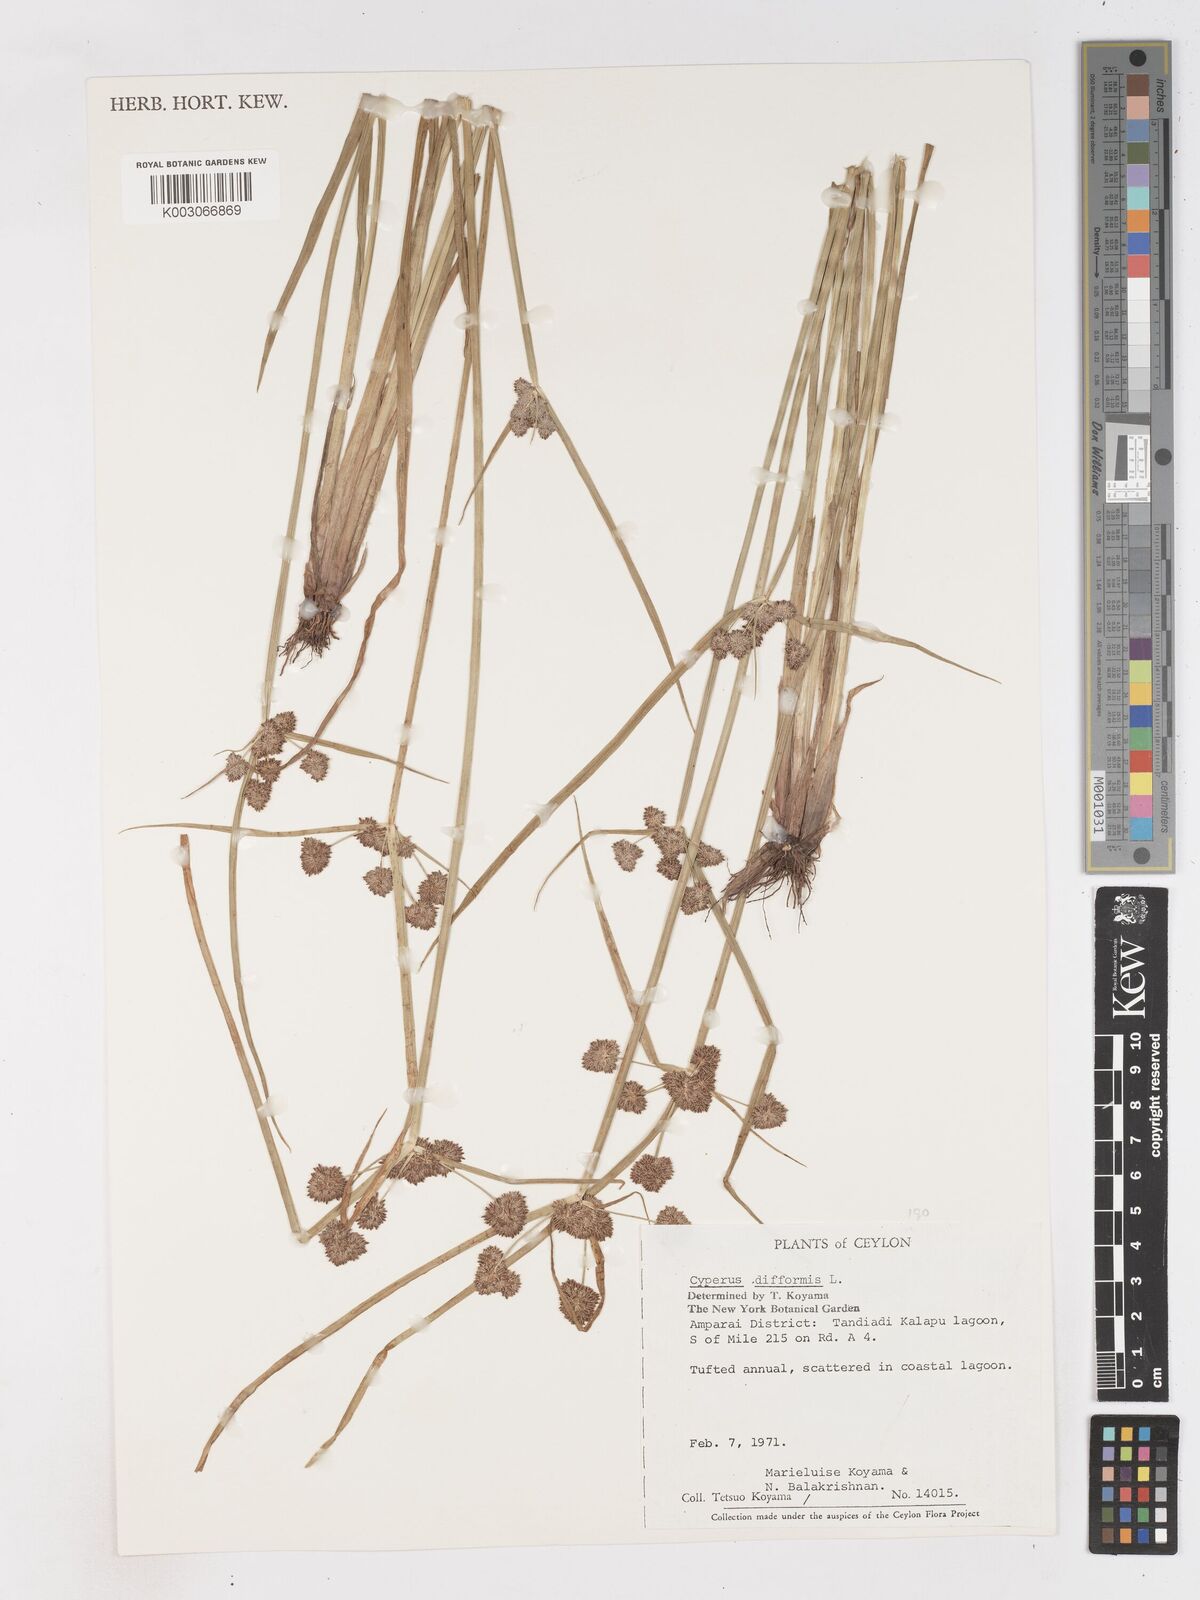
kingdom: Plantae
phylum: Tracheophyta
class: Liliopsida
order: Poales
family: Cyperaceae
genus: Cyperus
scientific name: Cyperus difformis
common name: Variable flatsedge
